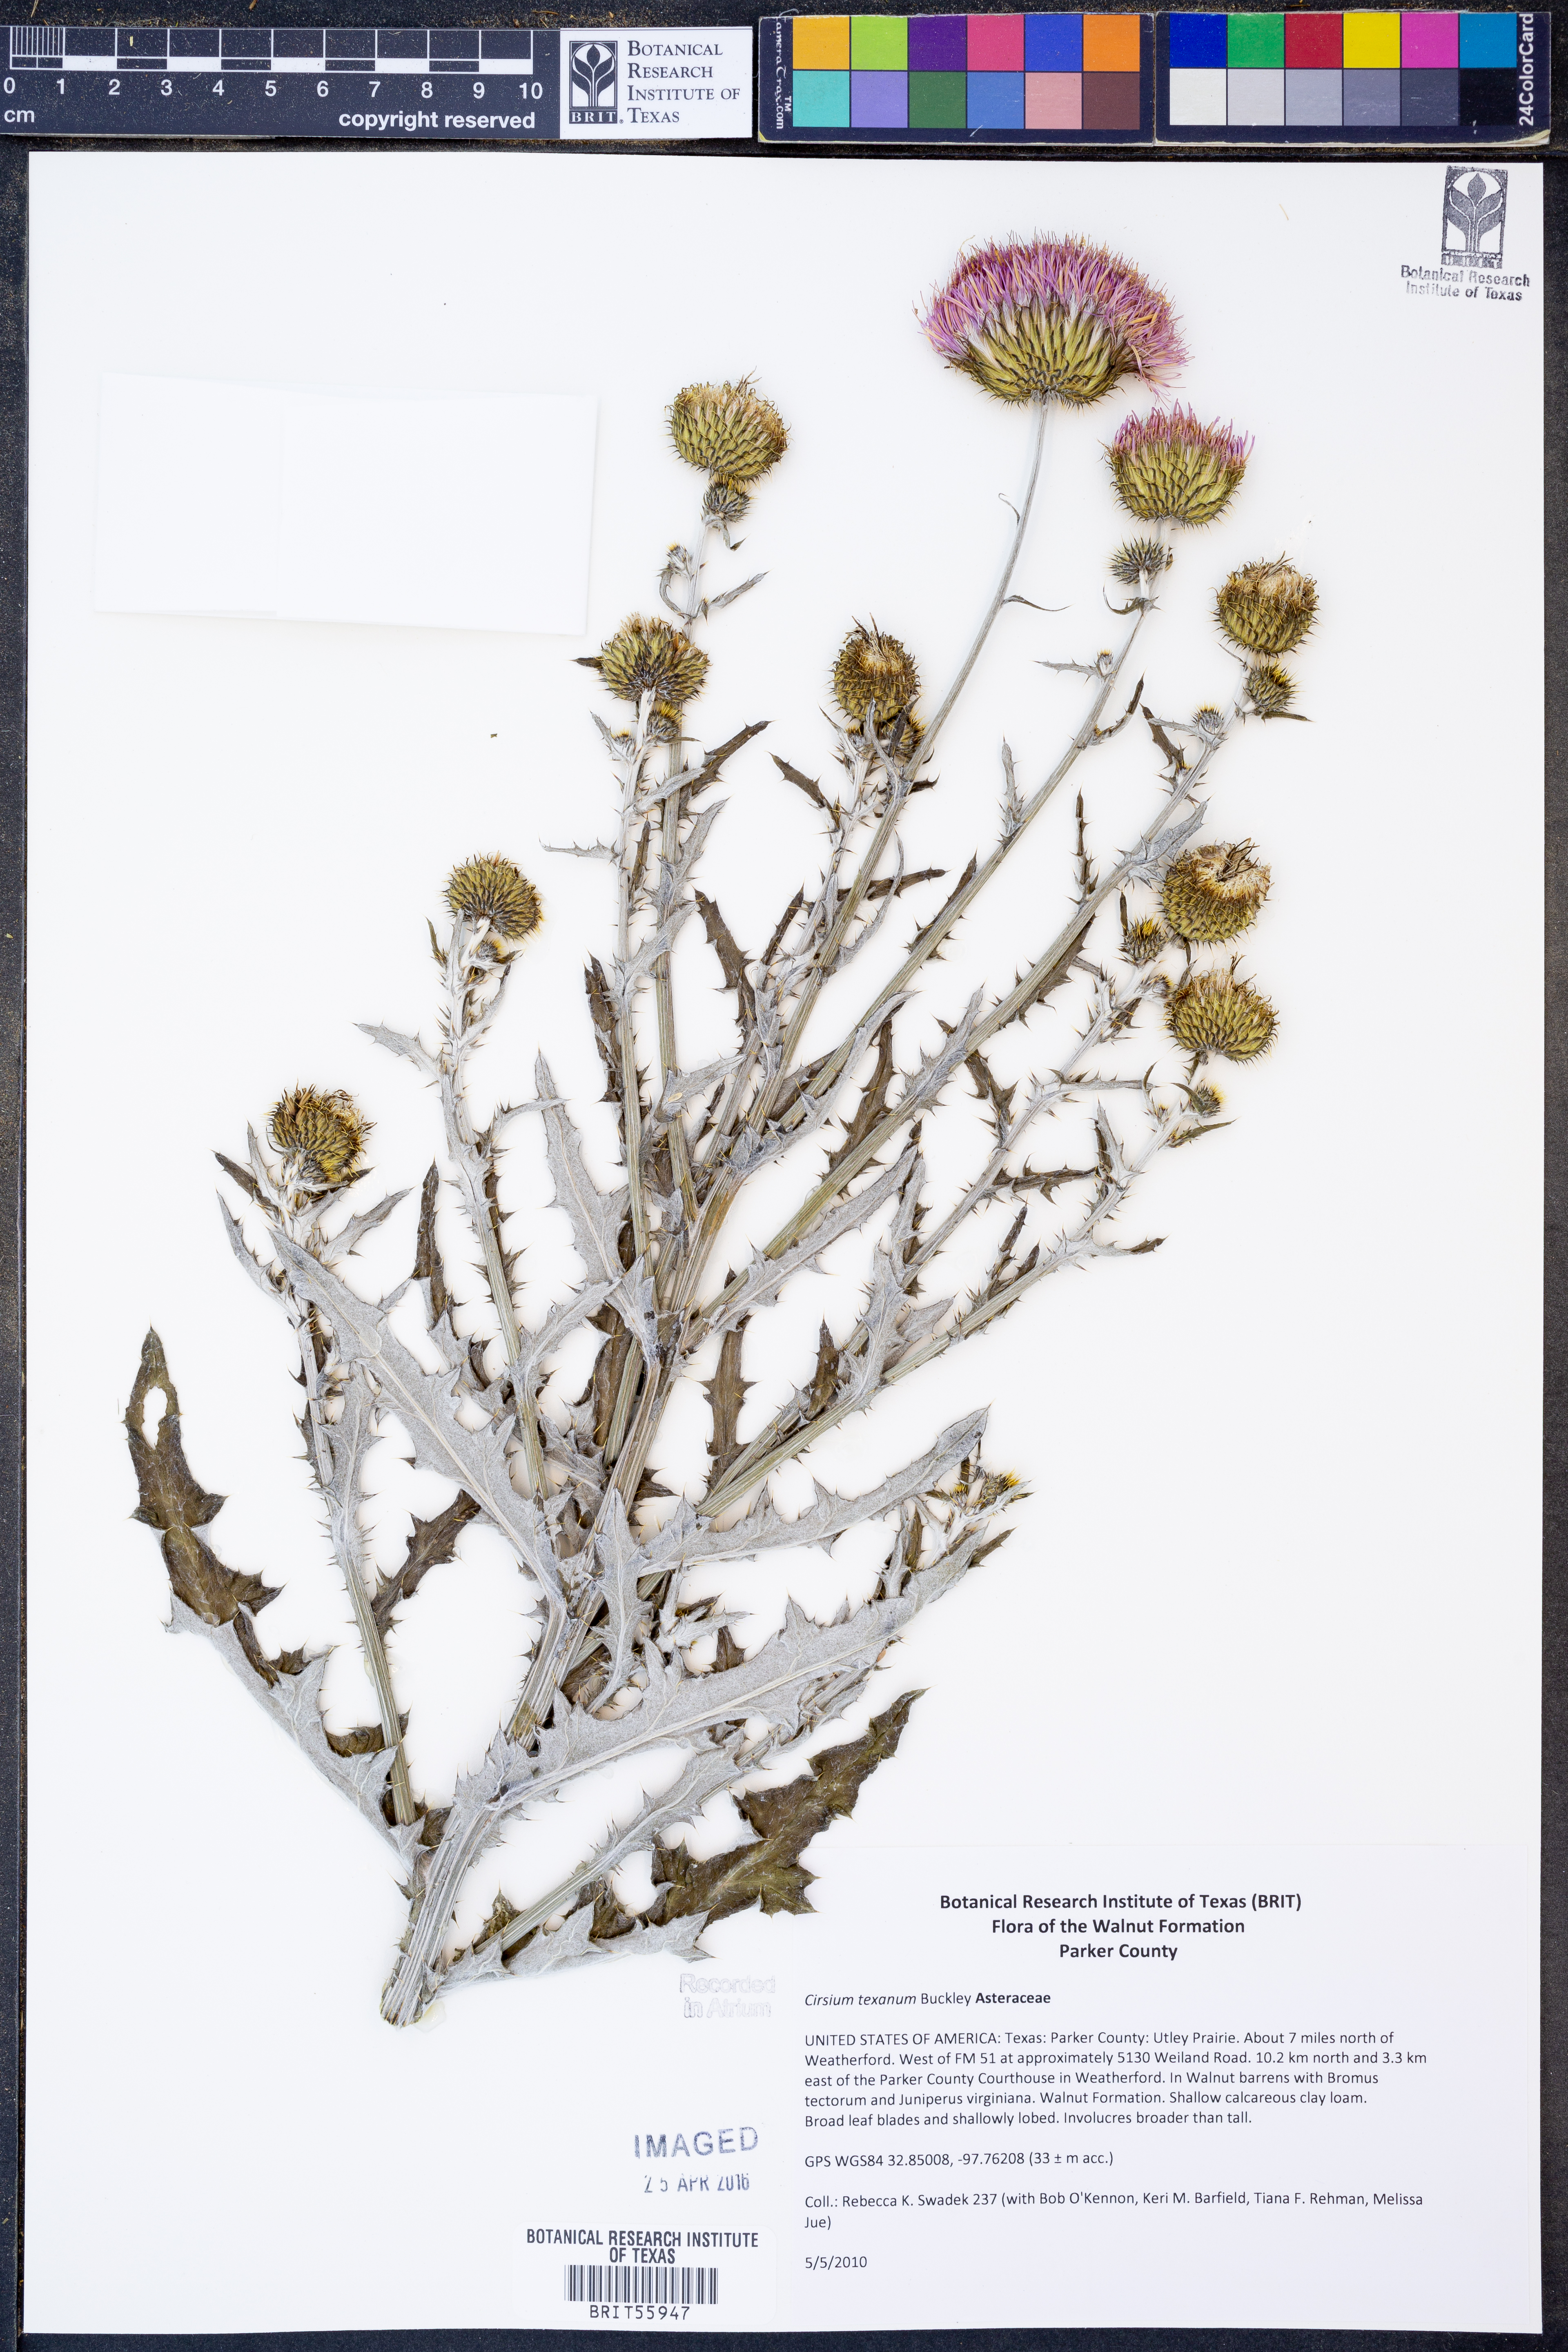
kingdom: Plantae
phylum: Tracheophyta
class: Magnoliopsida
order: Asterales
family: Asteraceae
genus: Cirsium
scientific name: Cirsium texanum
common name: Texas purple thistle
